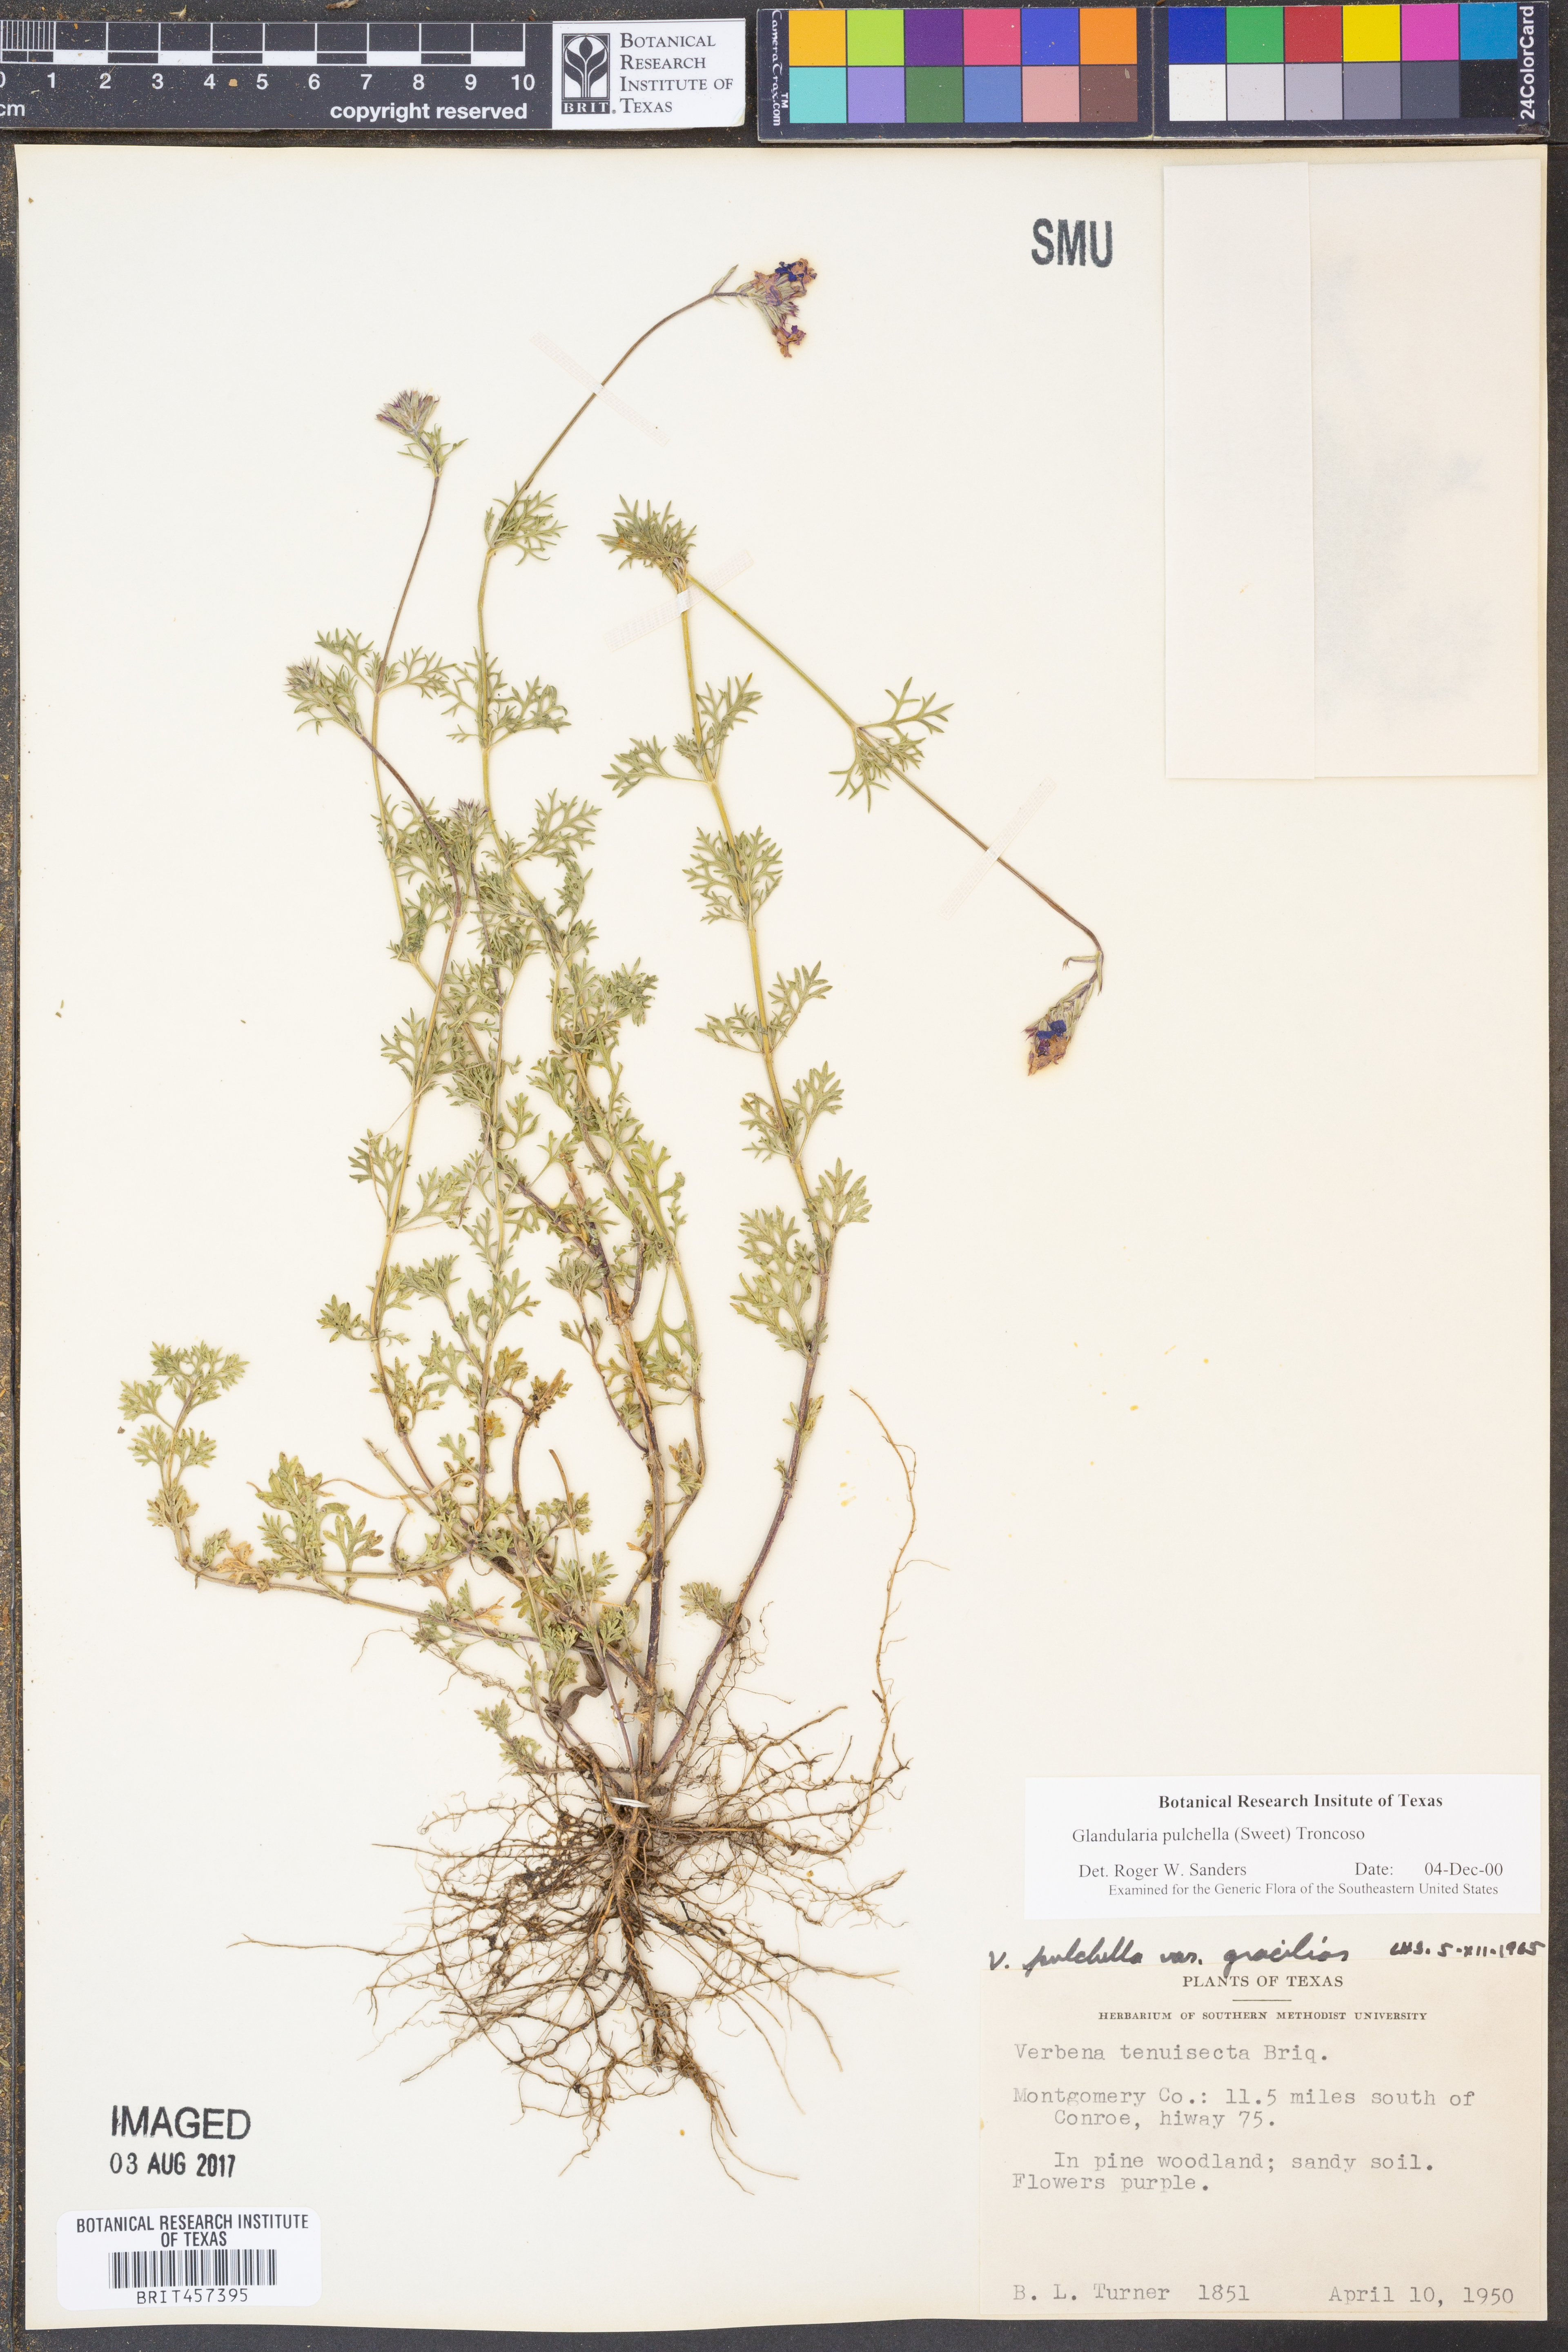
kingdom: Plantae
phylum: Tracheophyta
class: Magnoliopsida
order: Lamiales
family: Verbenaceae
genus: Verbena
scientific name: Verbena tenera
